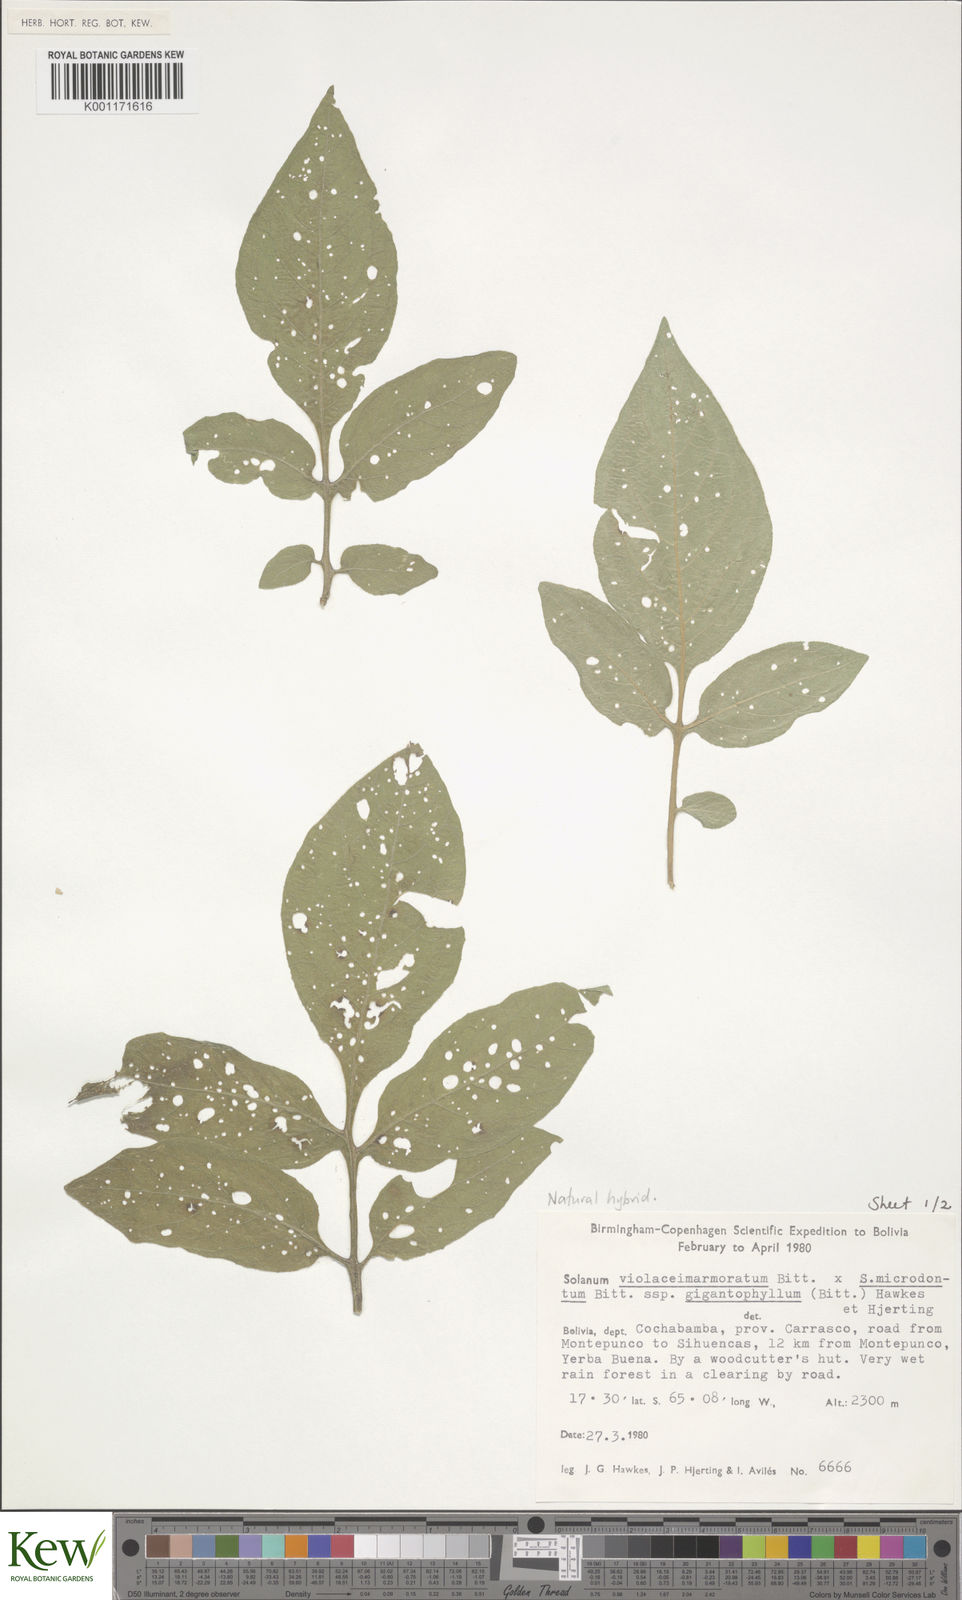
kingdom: Plantae
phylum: Tracheophyta
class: Magnoliopsida
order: Solanales
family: Solanaceae
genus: Solanum
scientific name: Solanum violaceimarmoratum
